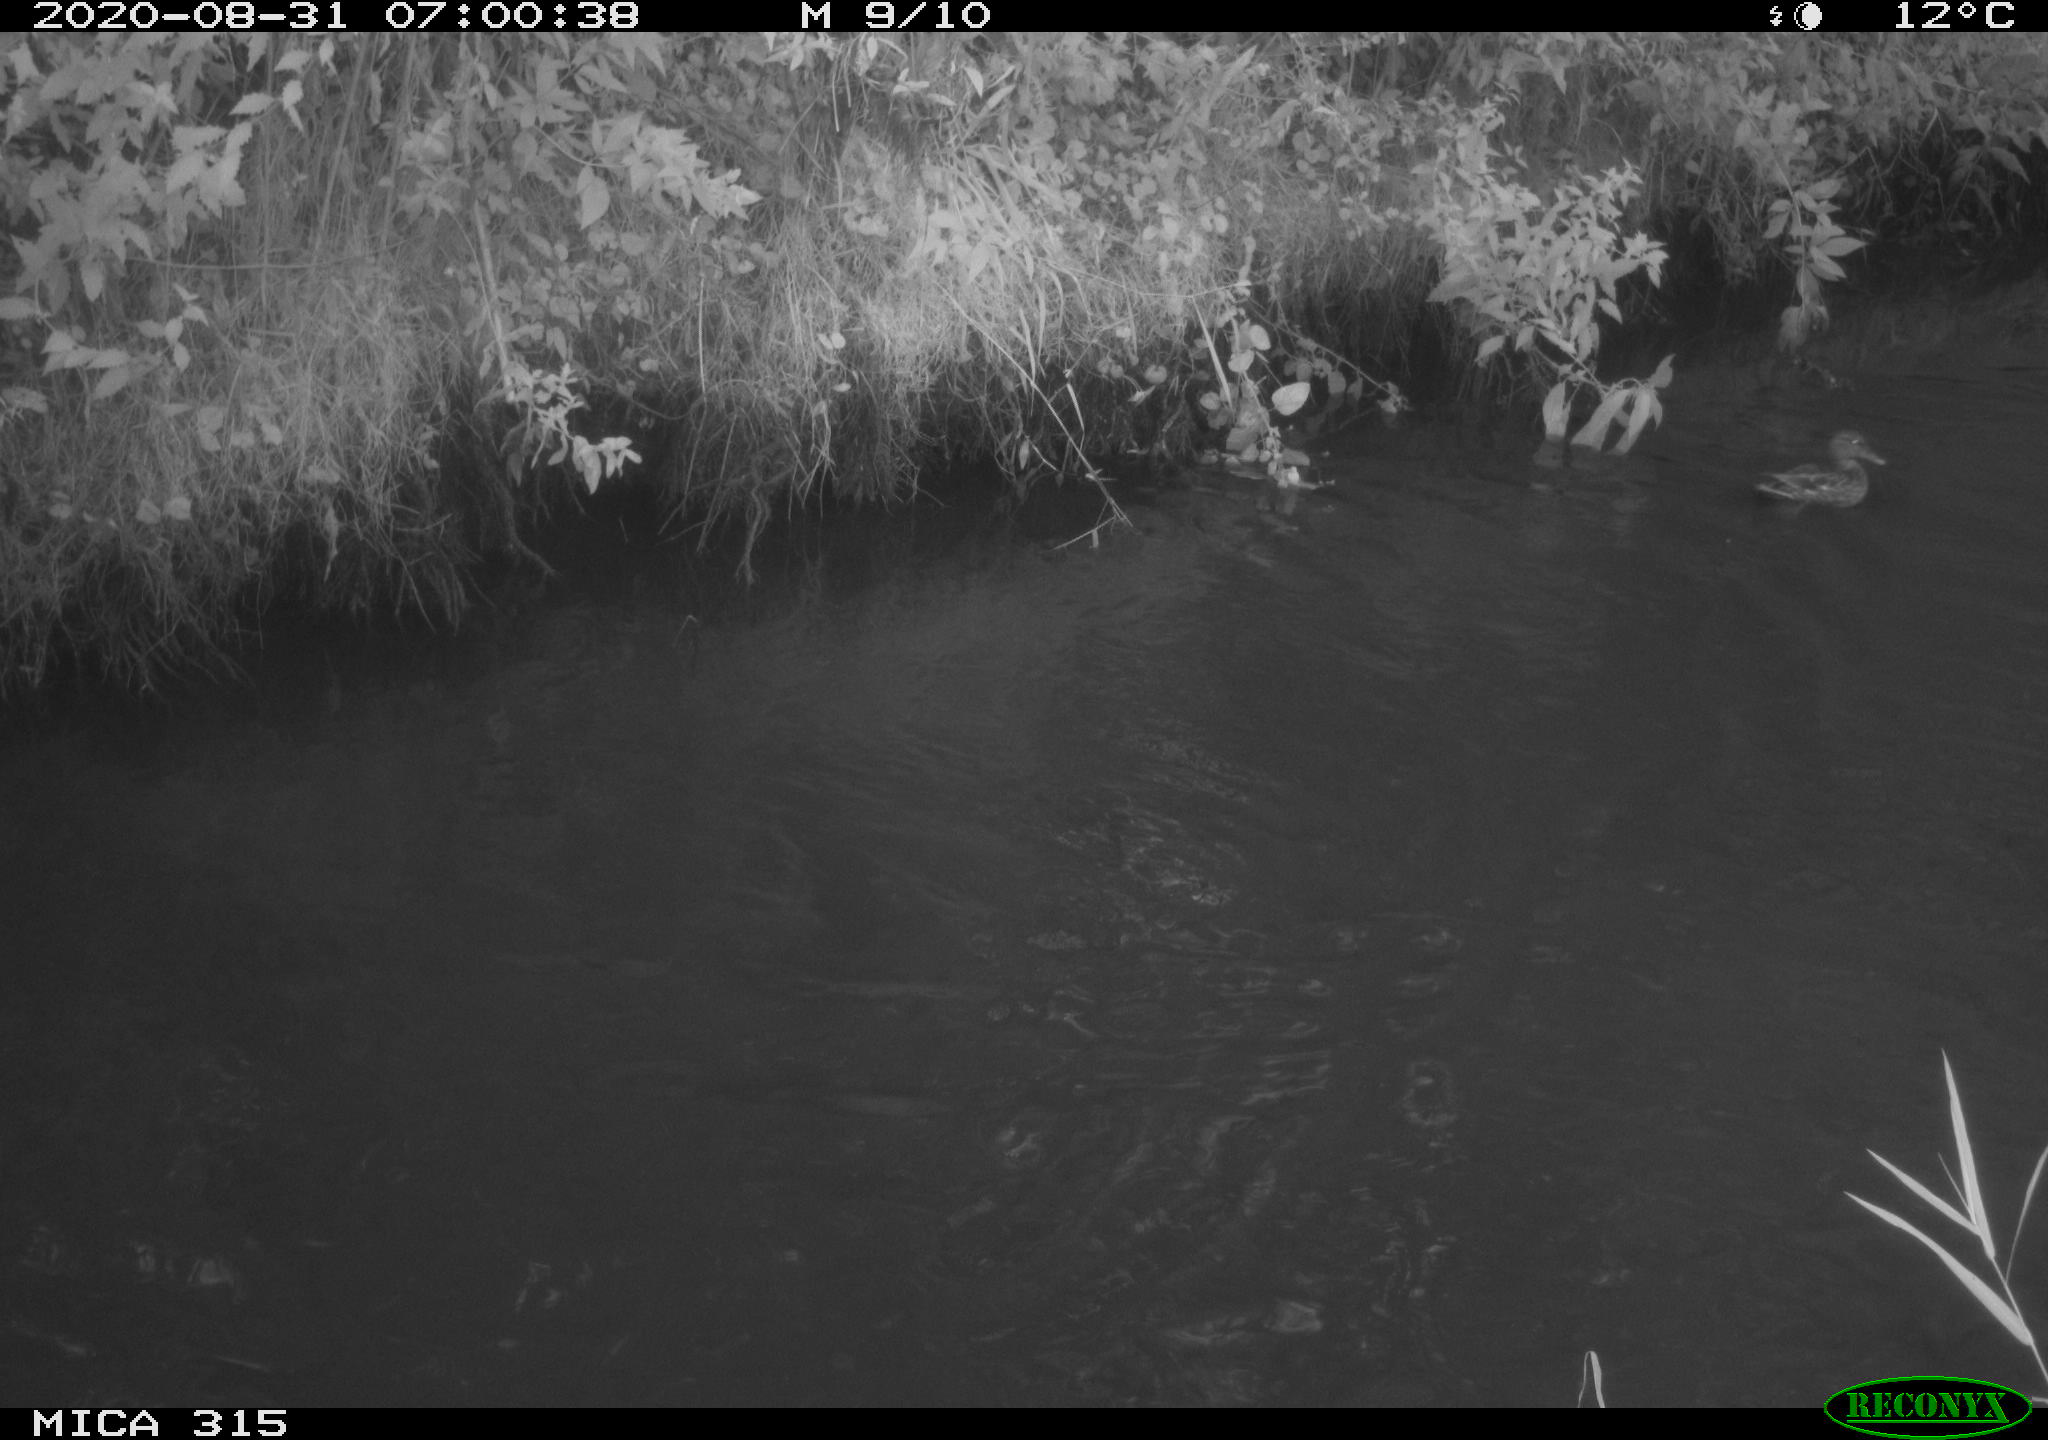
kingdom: Animalia
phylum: Chordata
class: Aves
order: Anseriformes
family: Anatidae
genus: Anas
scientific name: Anas platyrhynchos
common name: Mallard
